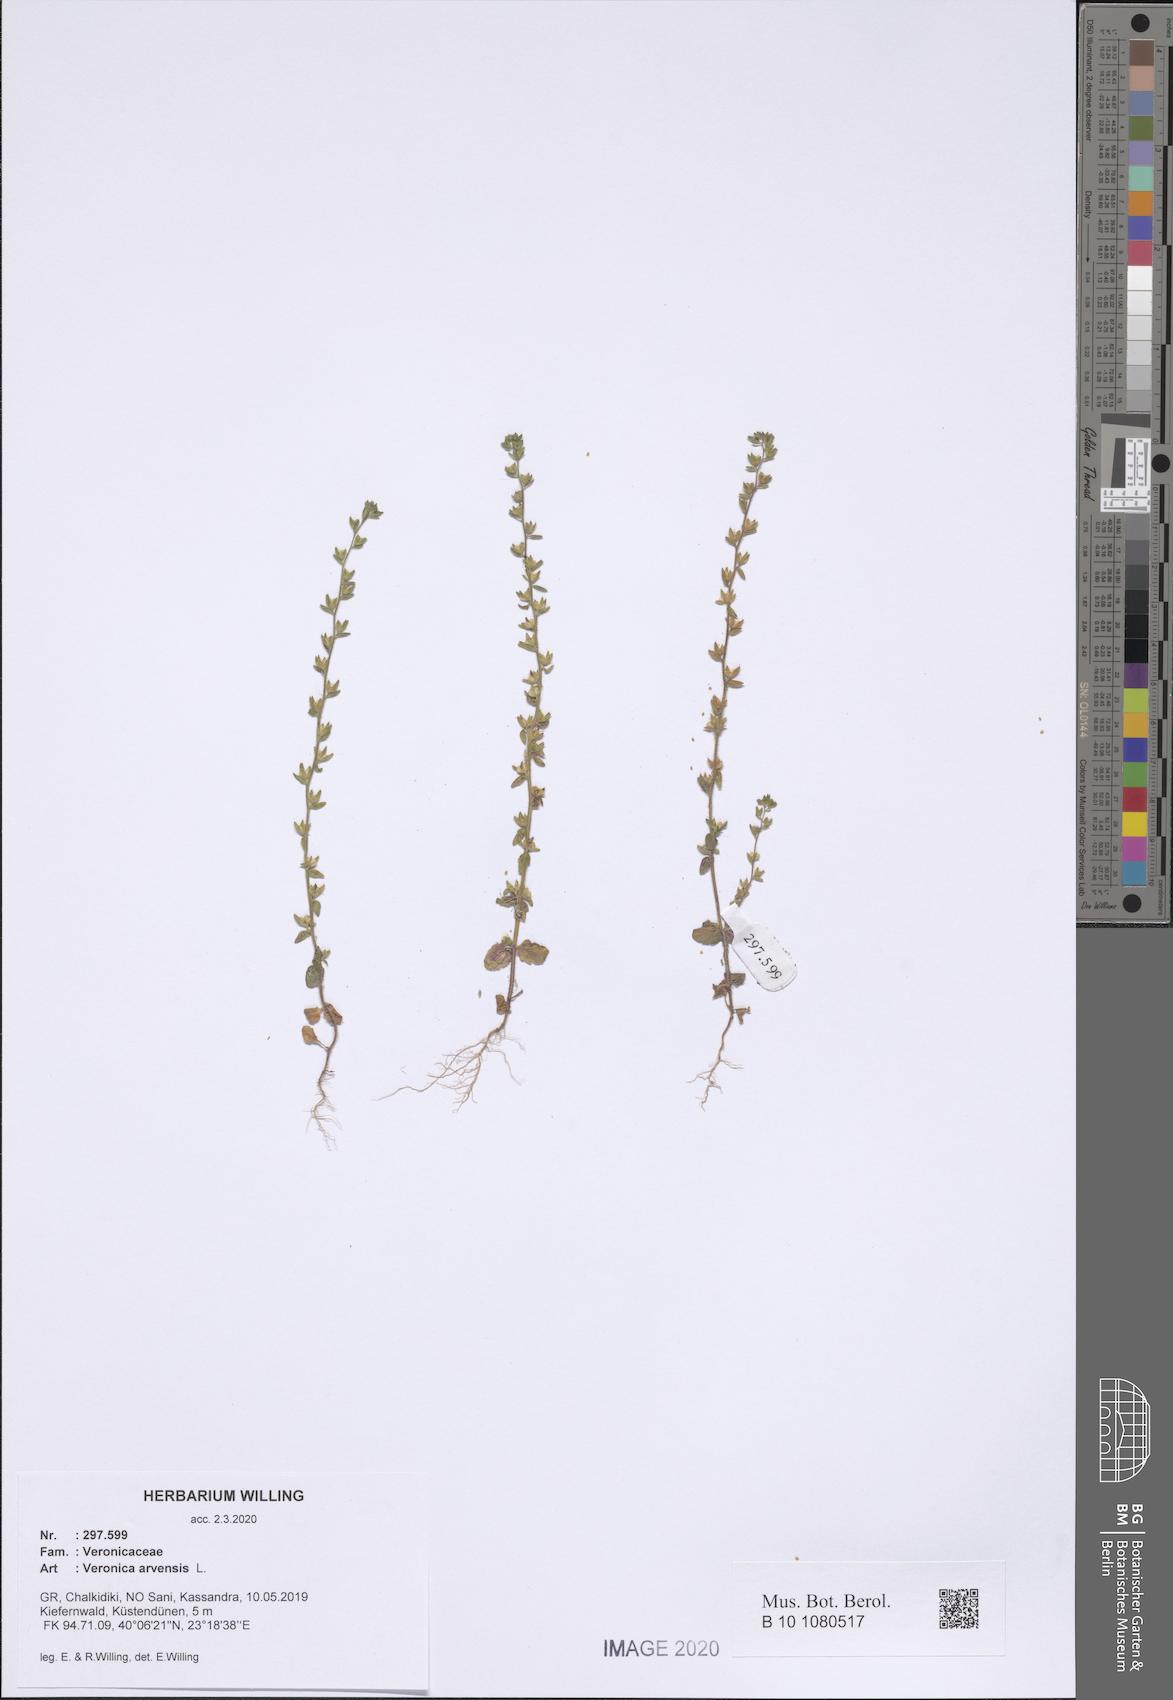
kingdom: Plantae
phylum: Tracheophyta
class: Magnoliopsida
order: Lamiales
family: Plantaginaceae
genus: Veronica
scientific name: Veronica arvensis
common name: Corn speedwell
